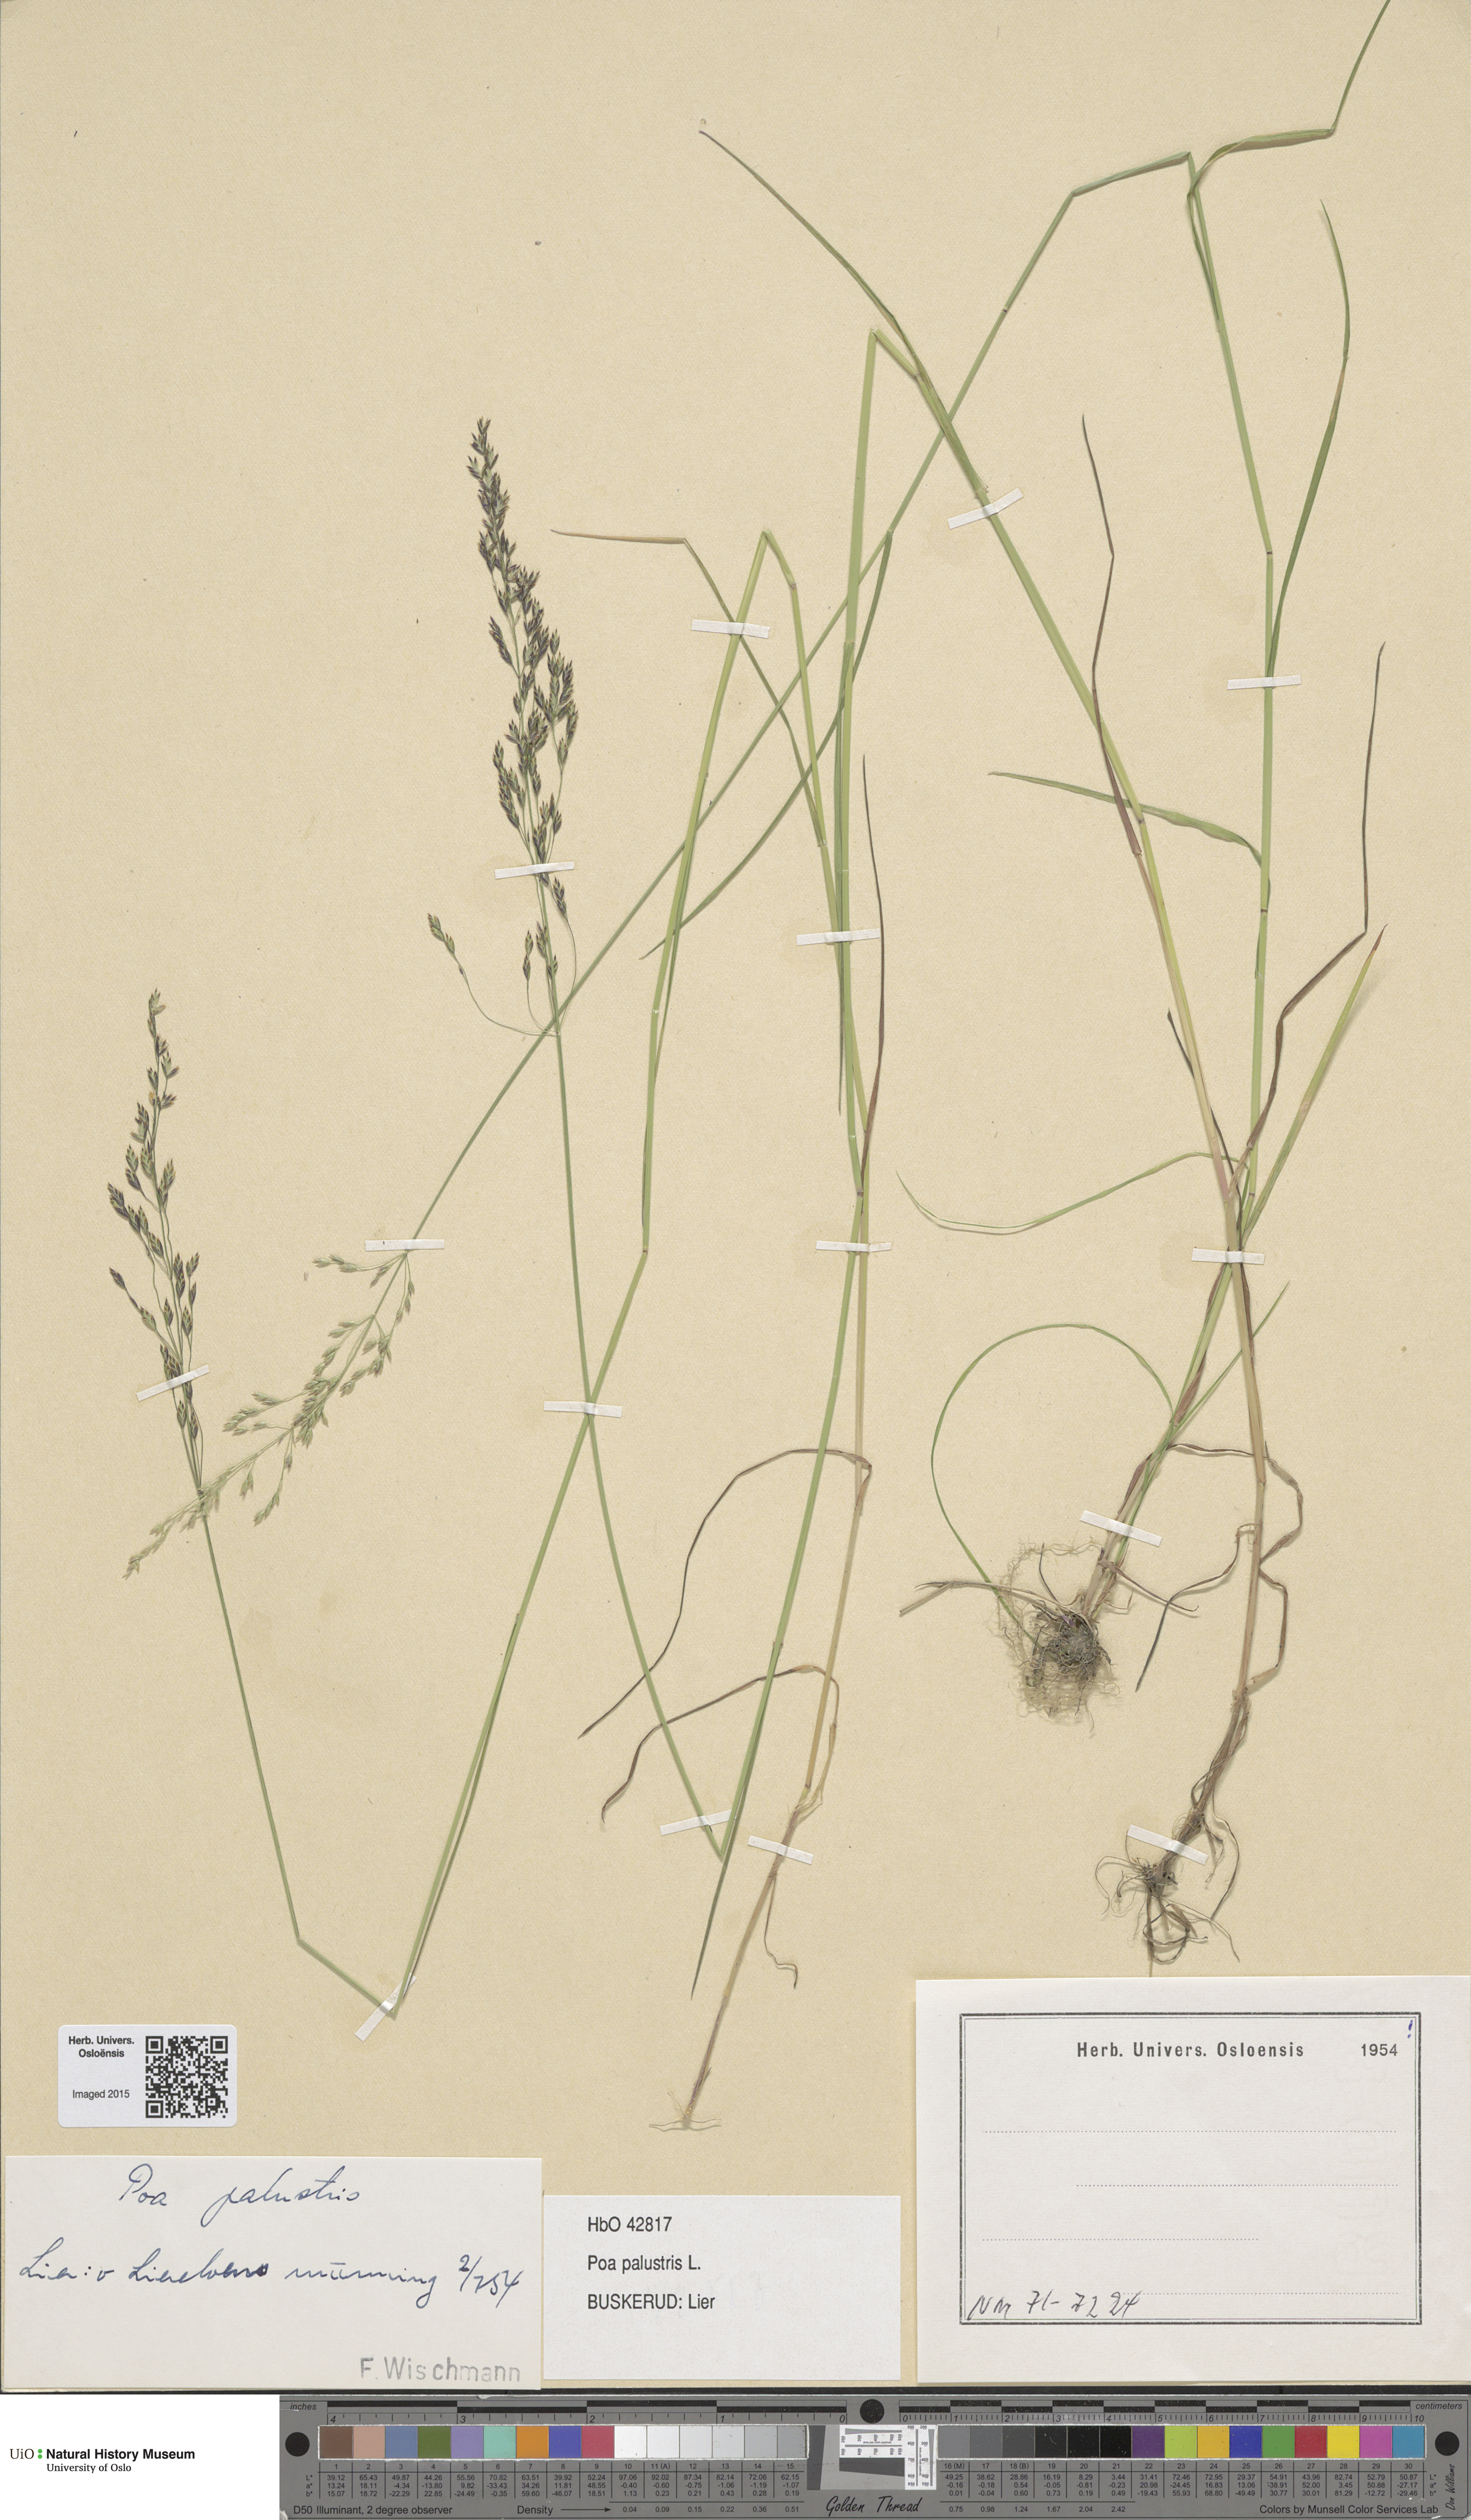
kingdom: Plantae
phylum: Tracheophyta
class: Liliopsida
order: Poales
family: Poaceae
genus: Poa
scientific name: Poa palustris
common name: Swamp meadow-grass
